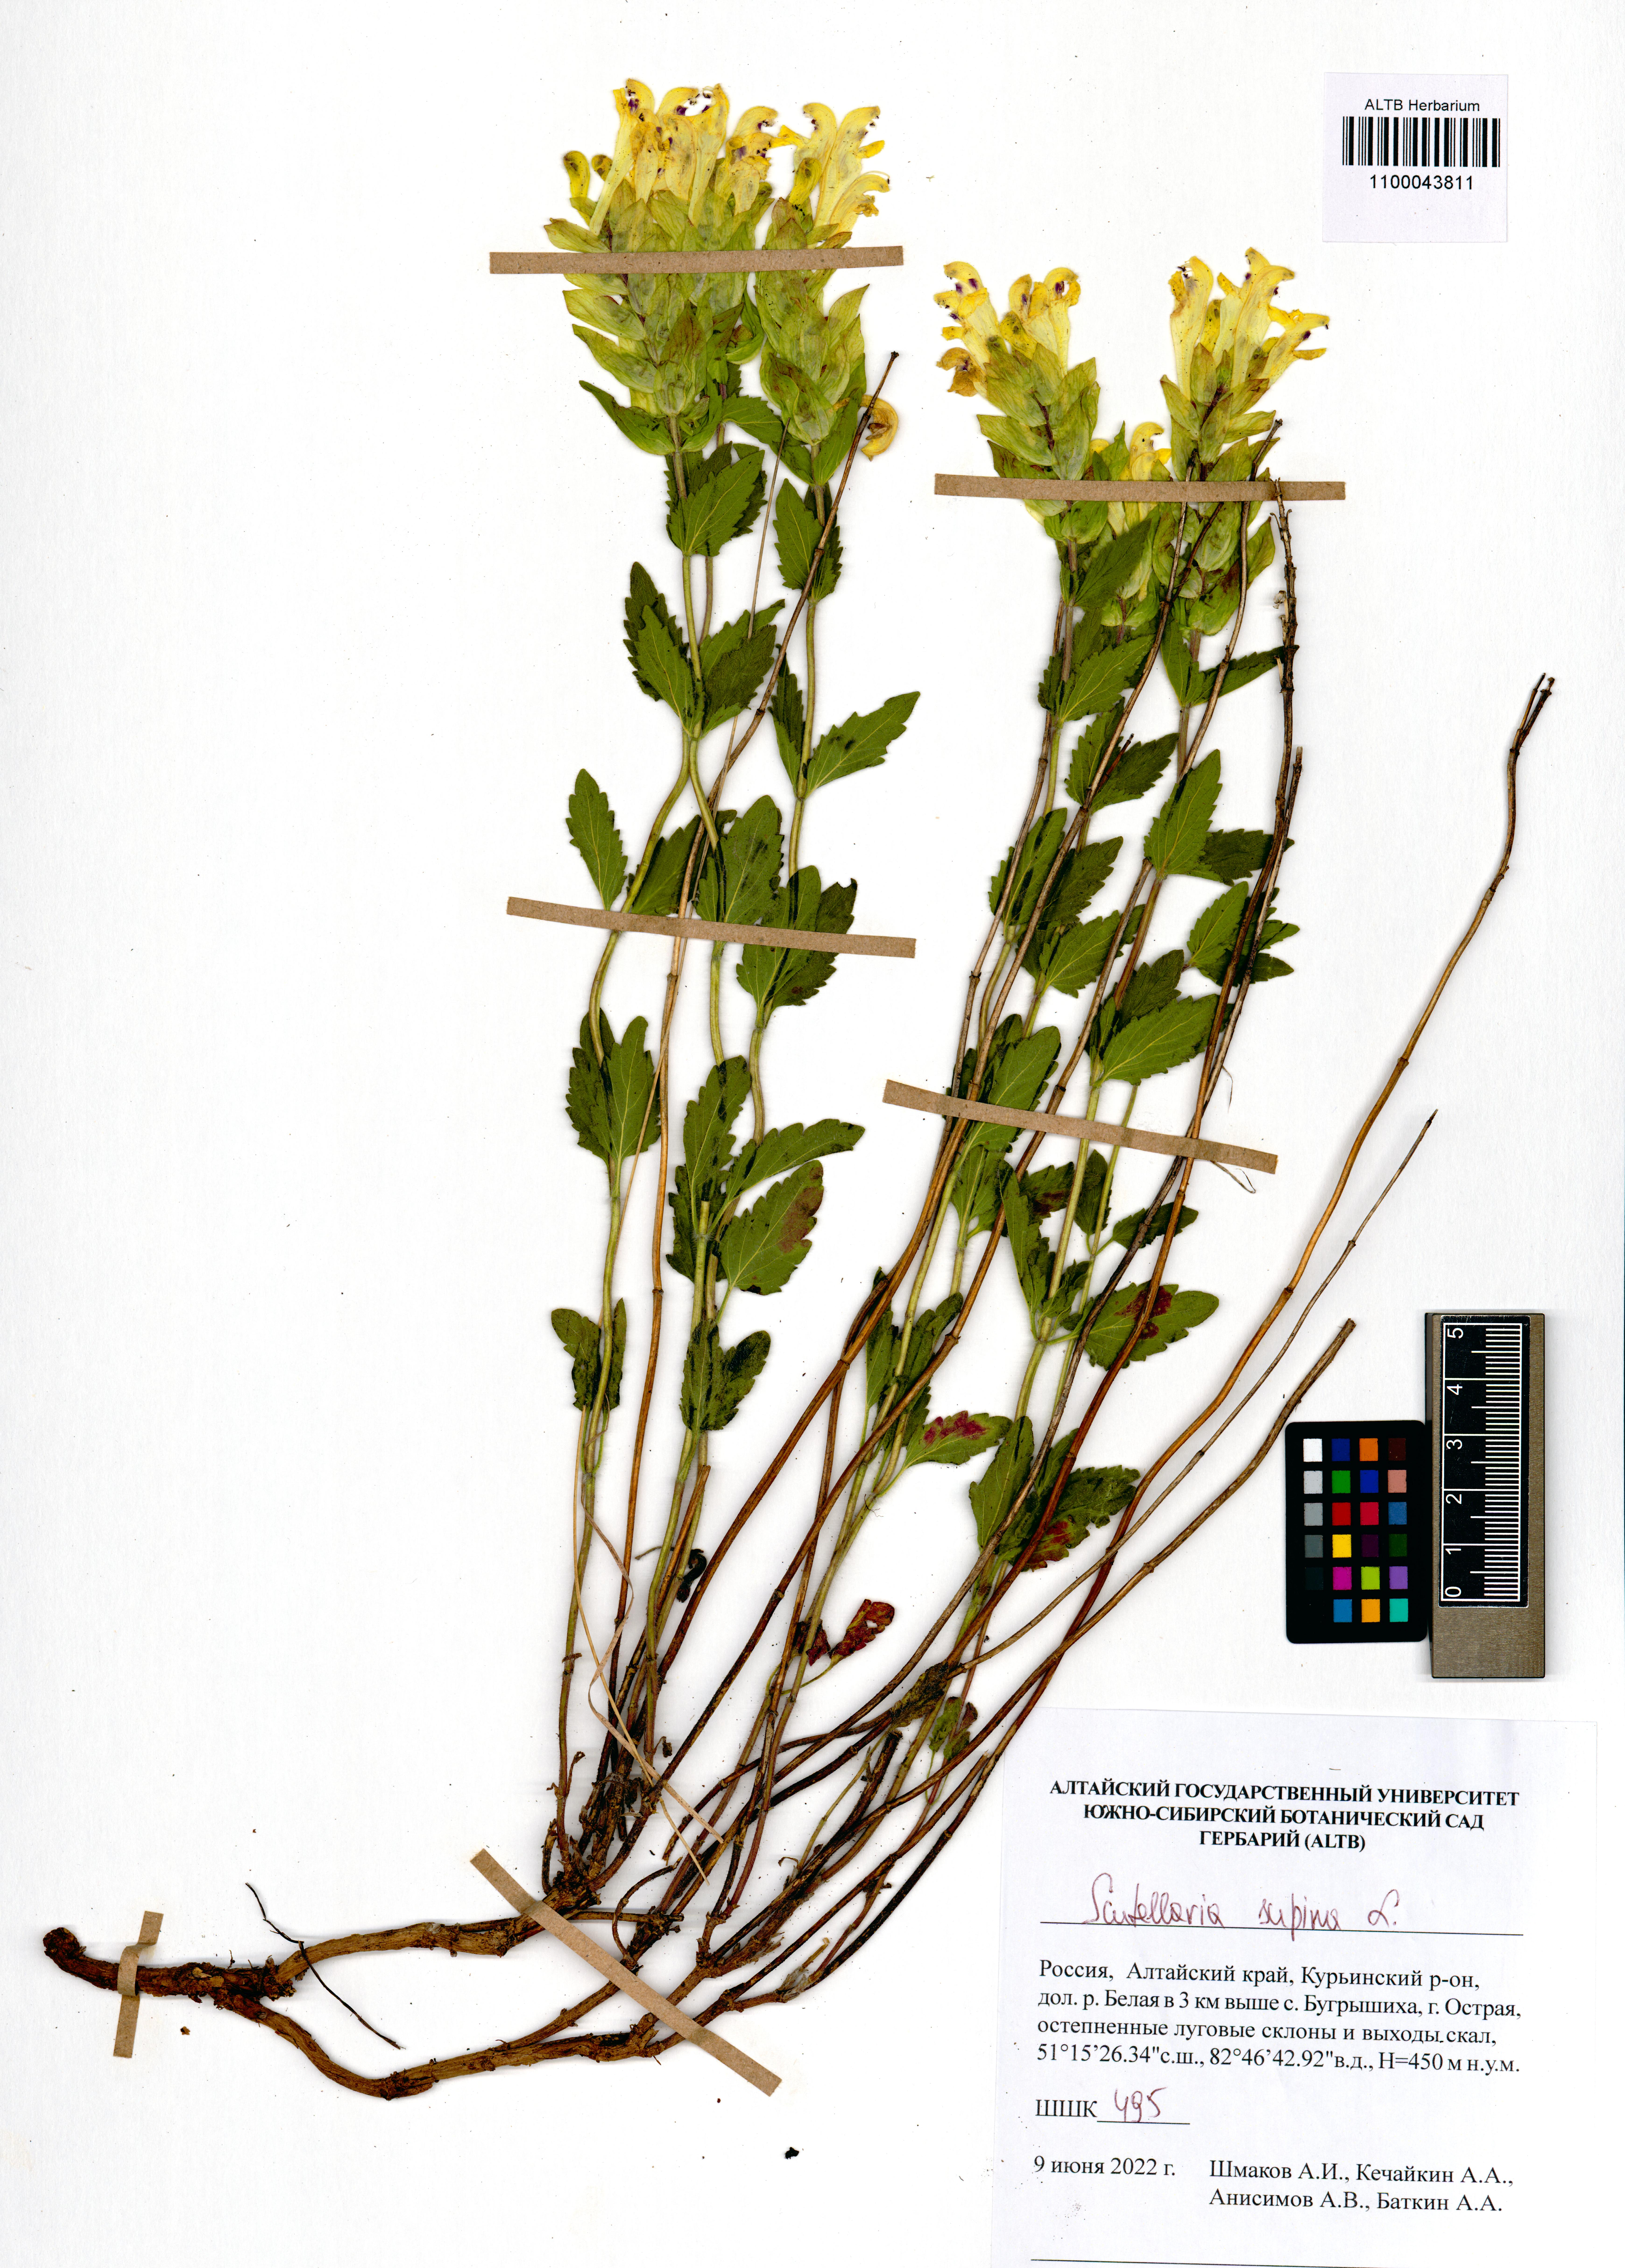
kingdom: Plantae
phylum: Tracheophyta
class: Magnoliopsida
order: Lamiales
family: Lamiaceae
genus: Scutellaria
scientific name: Scutellaria supina
